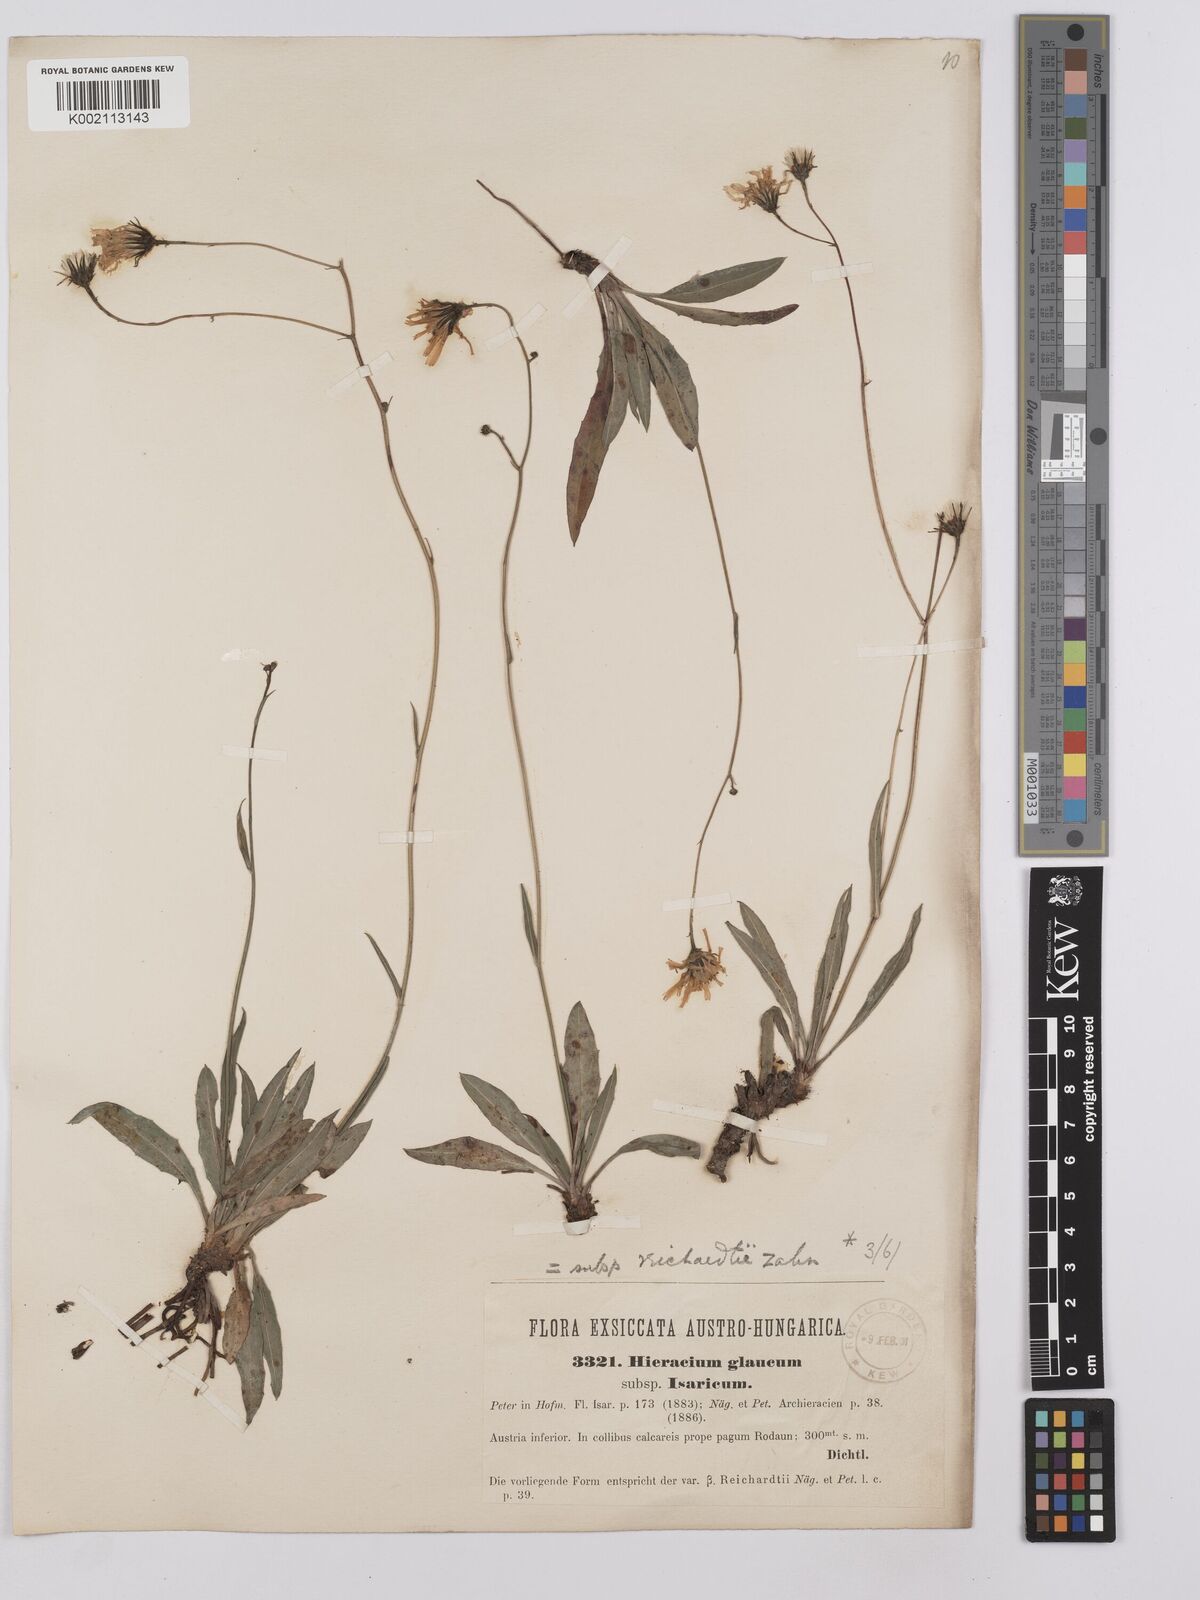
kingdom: Plantae
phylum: Tracheophyta
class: Magnoliopsida
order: Asterales
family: Asteraceae
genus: Hieracium
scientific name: Hieracium glaucum
